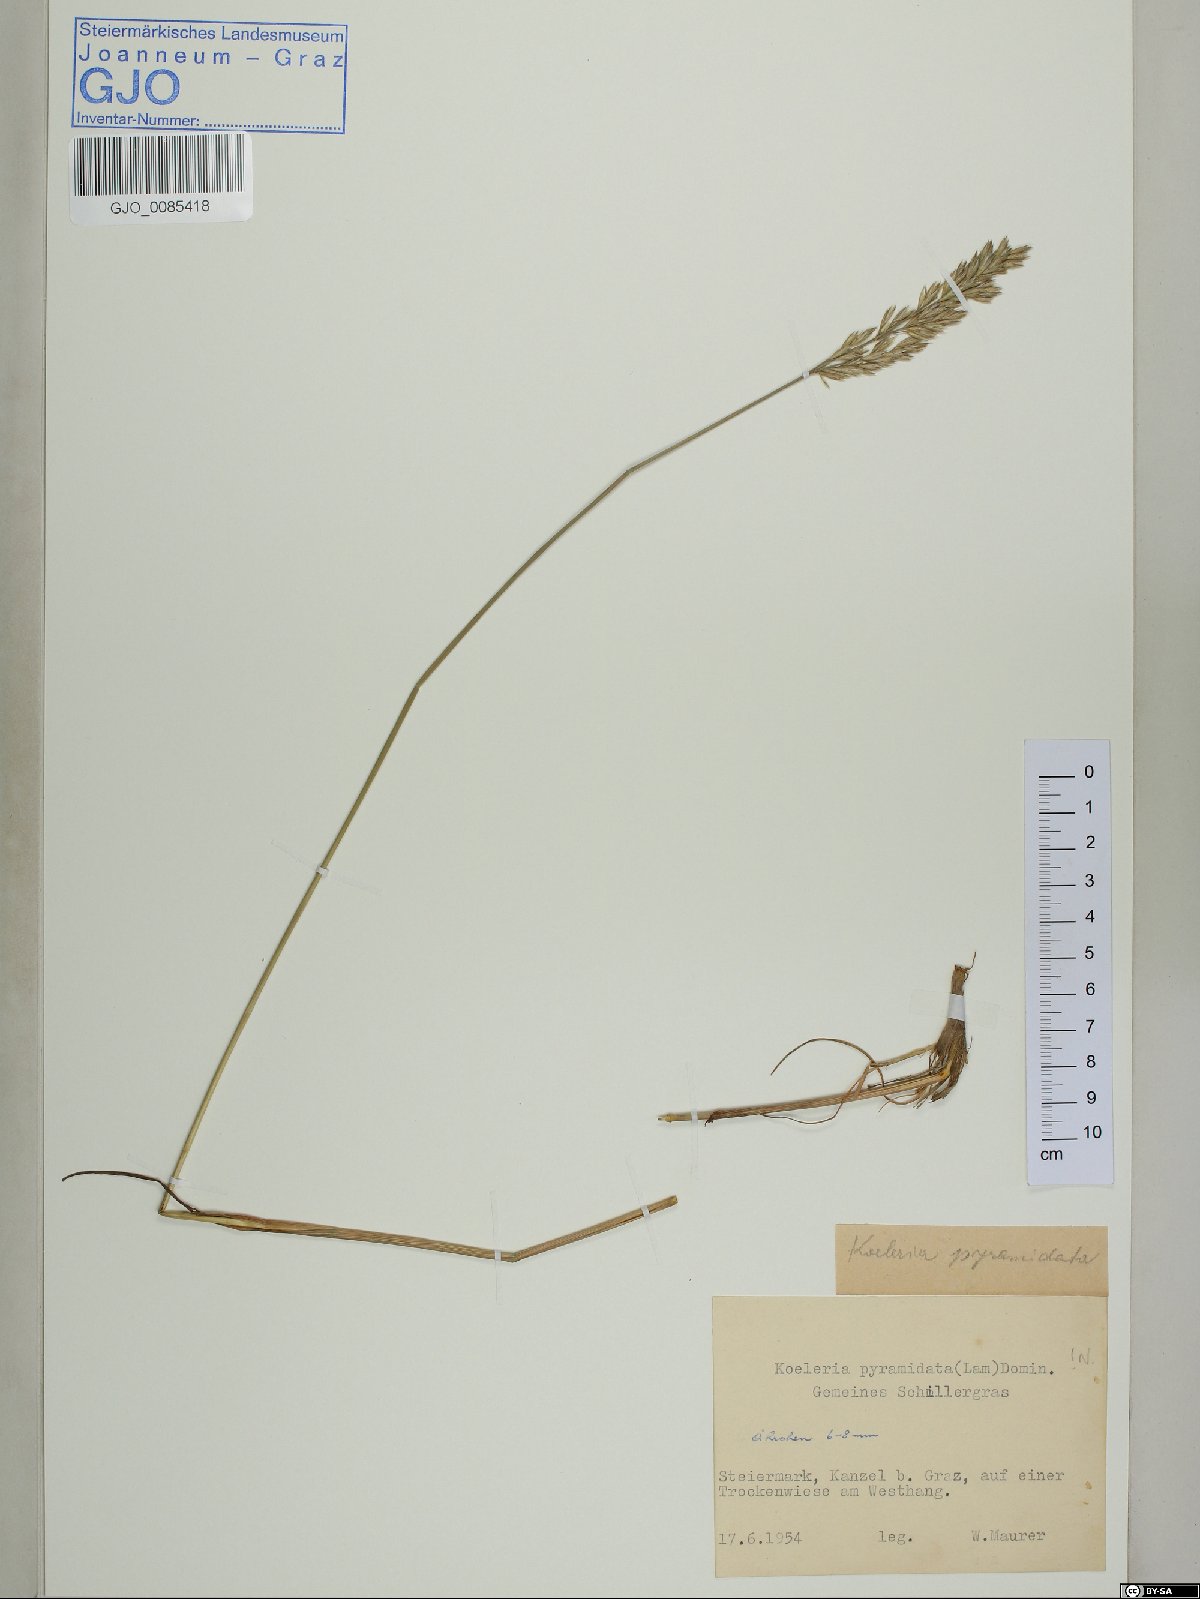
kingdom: Plantae
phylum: Tracheophyta
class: Liliopsida
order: Poales
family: Poaceae
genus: Koeleria
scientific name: Koeleria pyramidata
